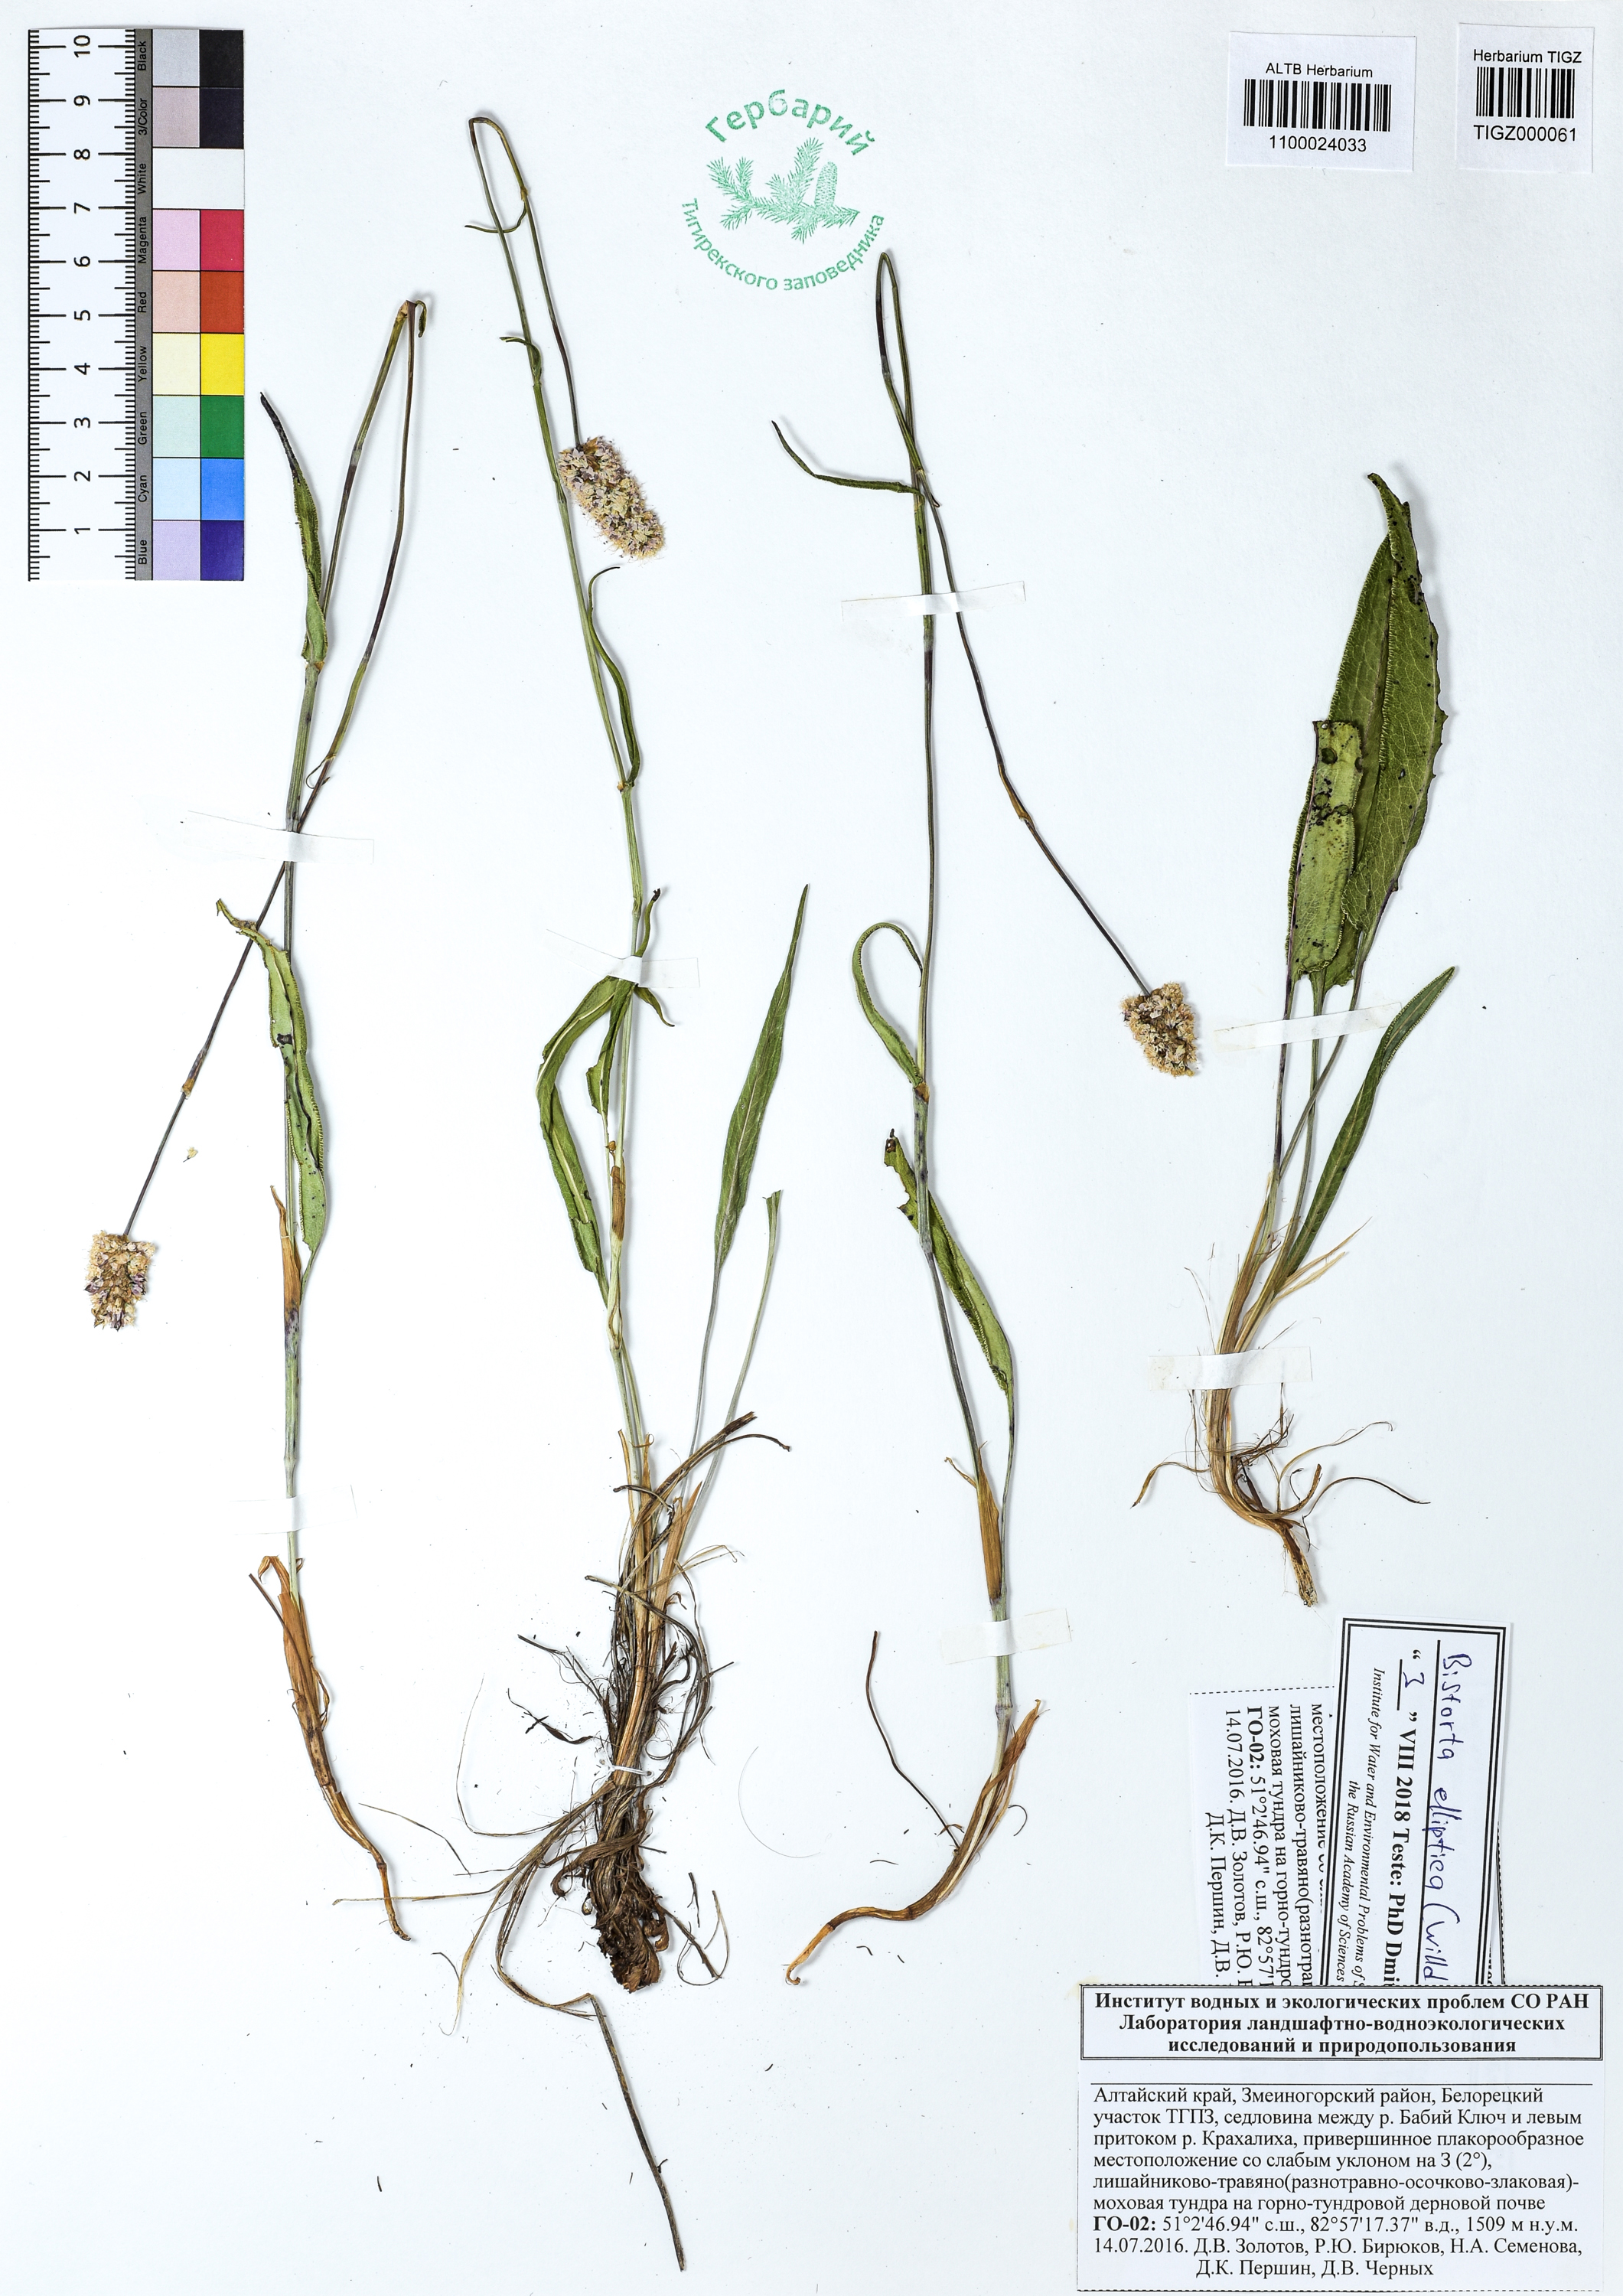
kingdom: Plantae
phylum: Tracheophyta
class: Magnoliopsida
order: Caryophyllales
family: Polygonaceae
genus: Bistorta
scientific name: Bistorta elliptica
